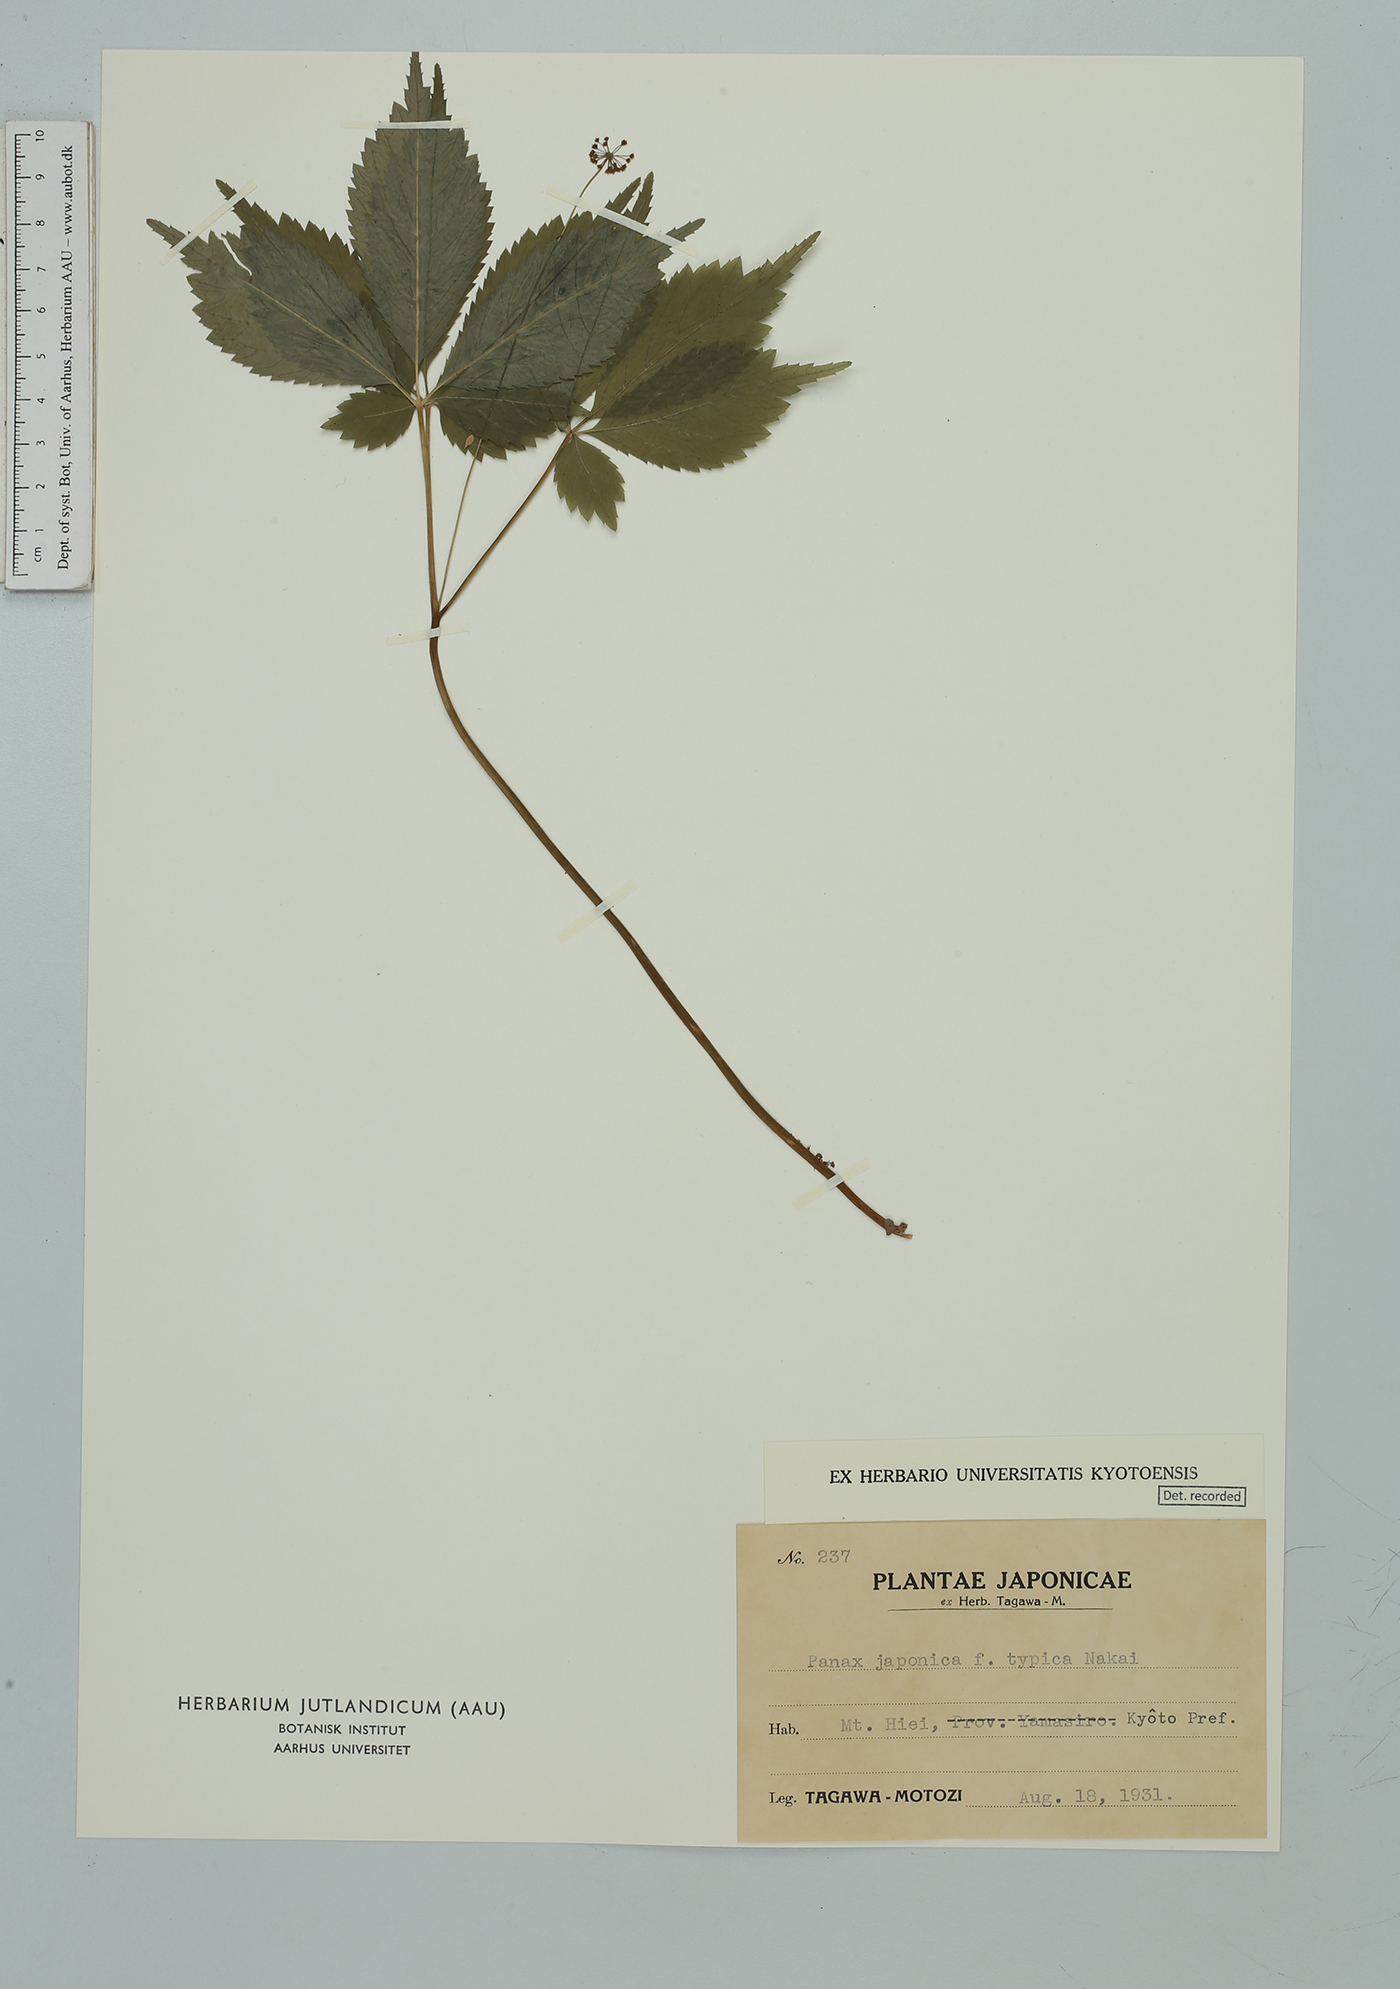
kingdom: Plantae
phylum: Tracheophyta
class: Magnoliopsida
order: Apiales
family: Araliaceae
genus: Panax
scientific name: Panax japonicus
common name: Japanese ginseng
